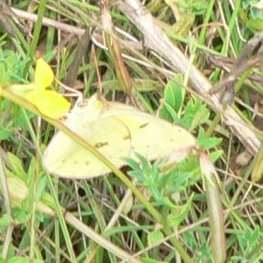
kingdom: Animalia
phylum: Arthropoda
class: Insecta
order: Lepidoptera
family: Pieridae
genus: Colias
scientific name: Colias philodice
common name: Clouded Sulphur
